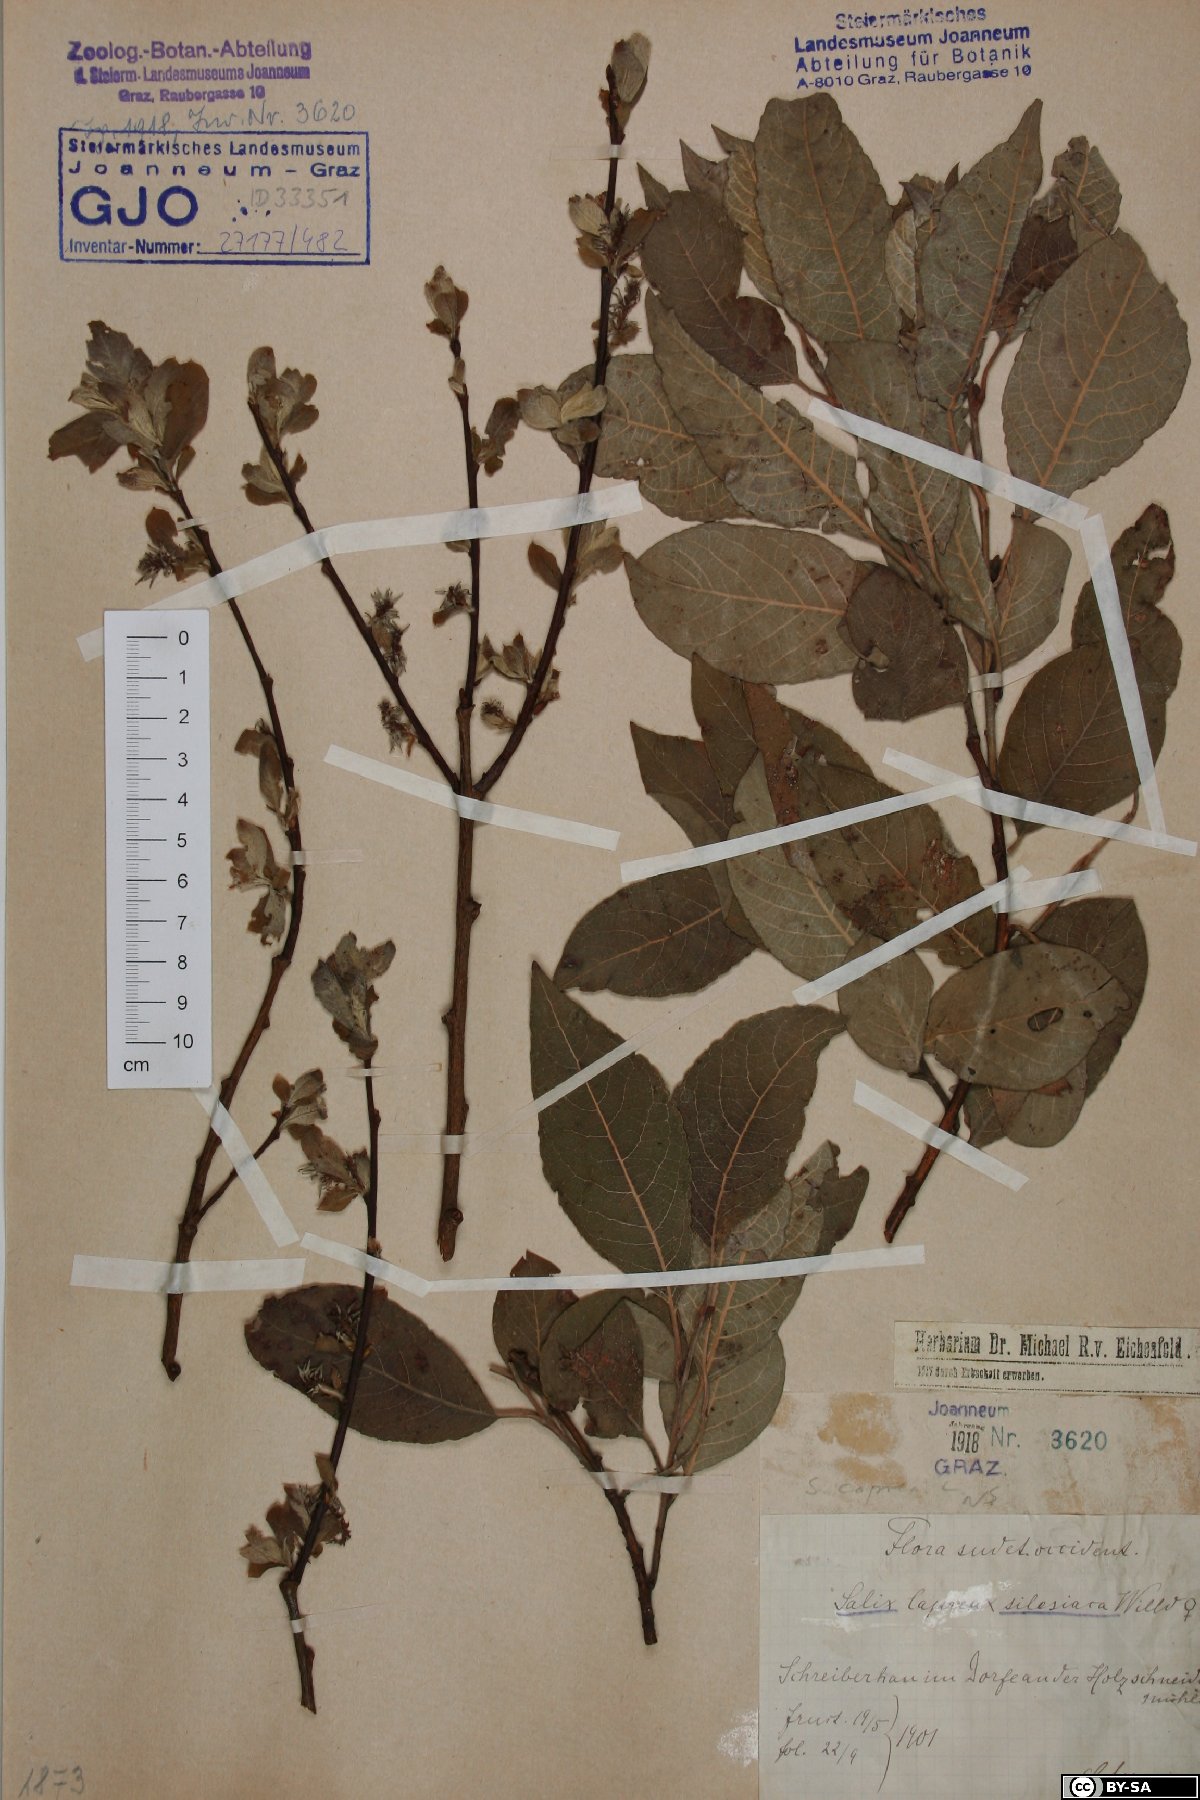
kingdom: Plantae
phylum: Tracheophyta
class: Magnoliopsida
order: Malpighiales
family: Salicaceae
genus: Salix
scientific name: Salix caprea
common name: Goat willow
